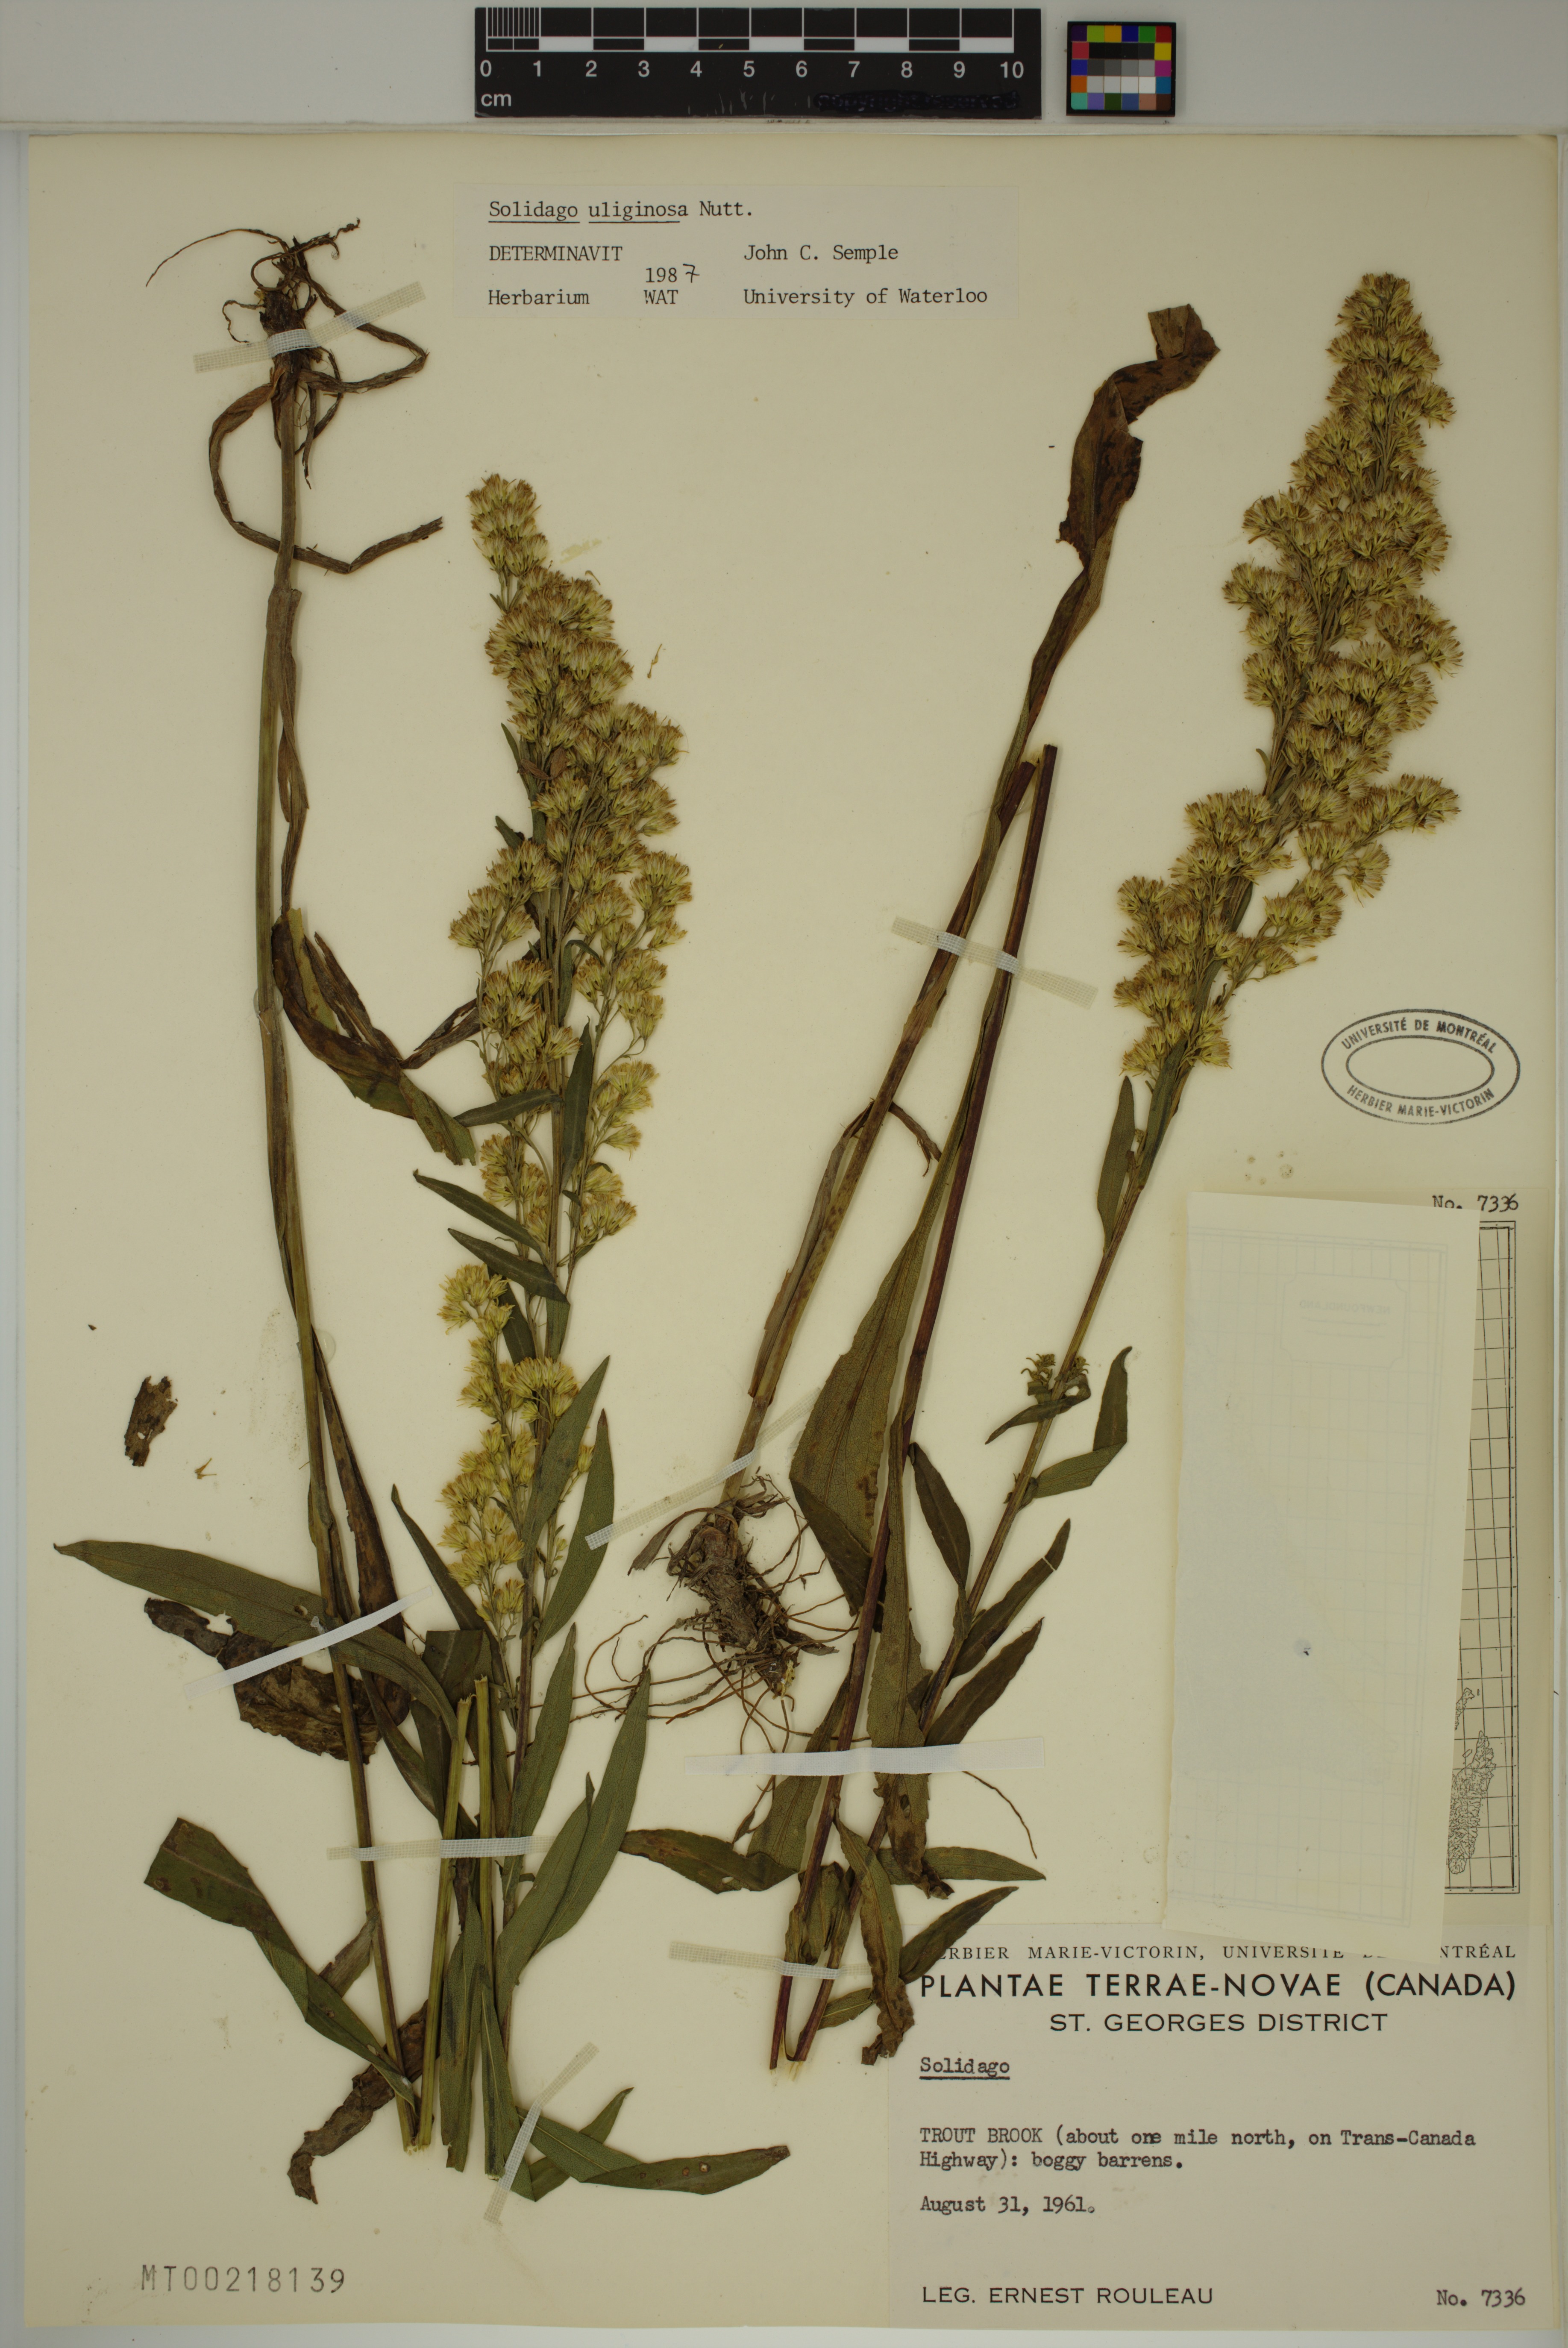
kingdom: Plantae
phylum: Tracheophyta
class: Magnoliopsida
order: Asterales
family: Asteraceae
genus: Solidago
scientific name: Solidago uliginosa
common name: Bog goldenrod
